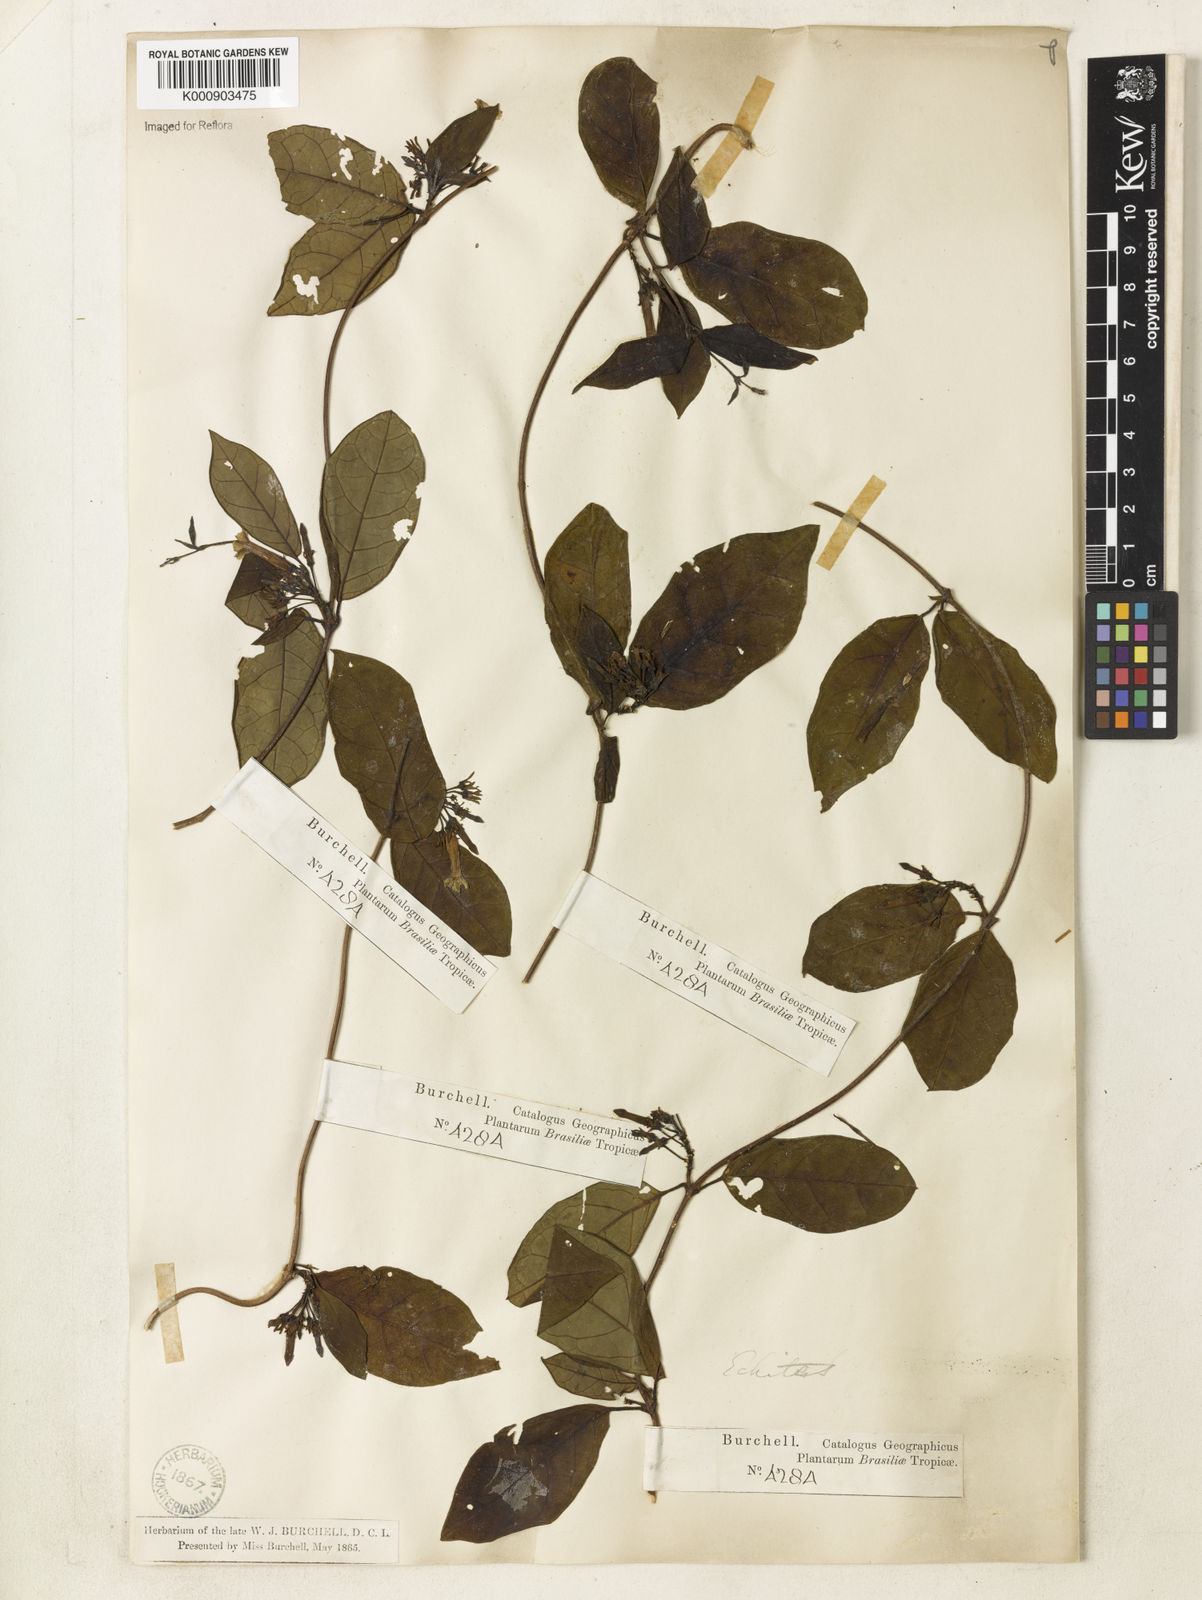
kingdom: Plantae
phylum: Tracheophyta
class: Magnoliopsida
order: Gentianales
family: Apocynaceae
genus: Prestonia
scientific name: Prestonia coalita
